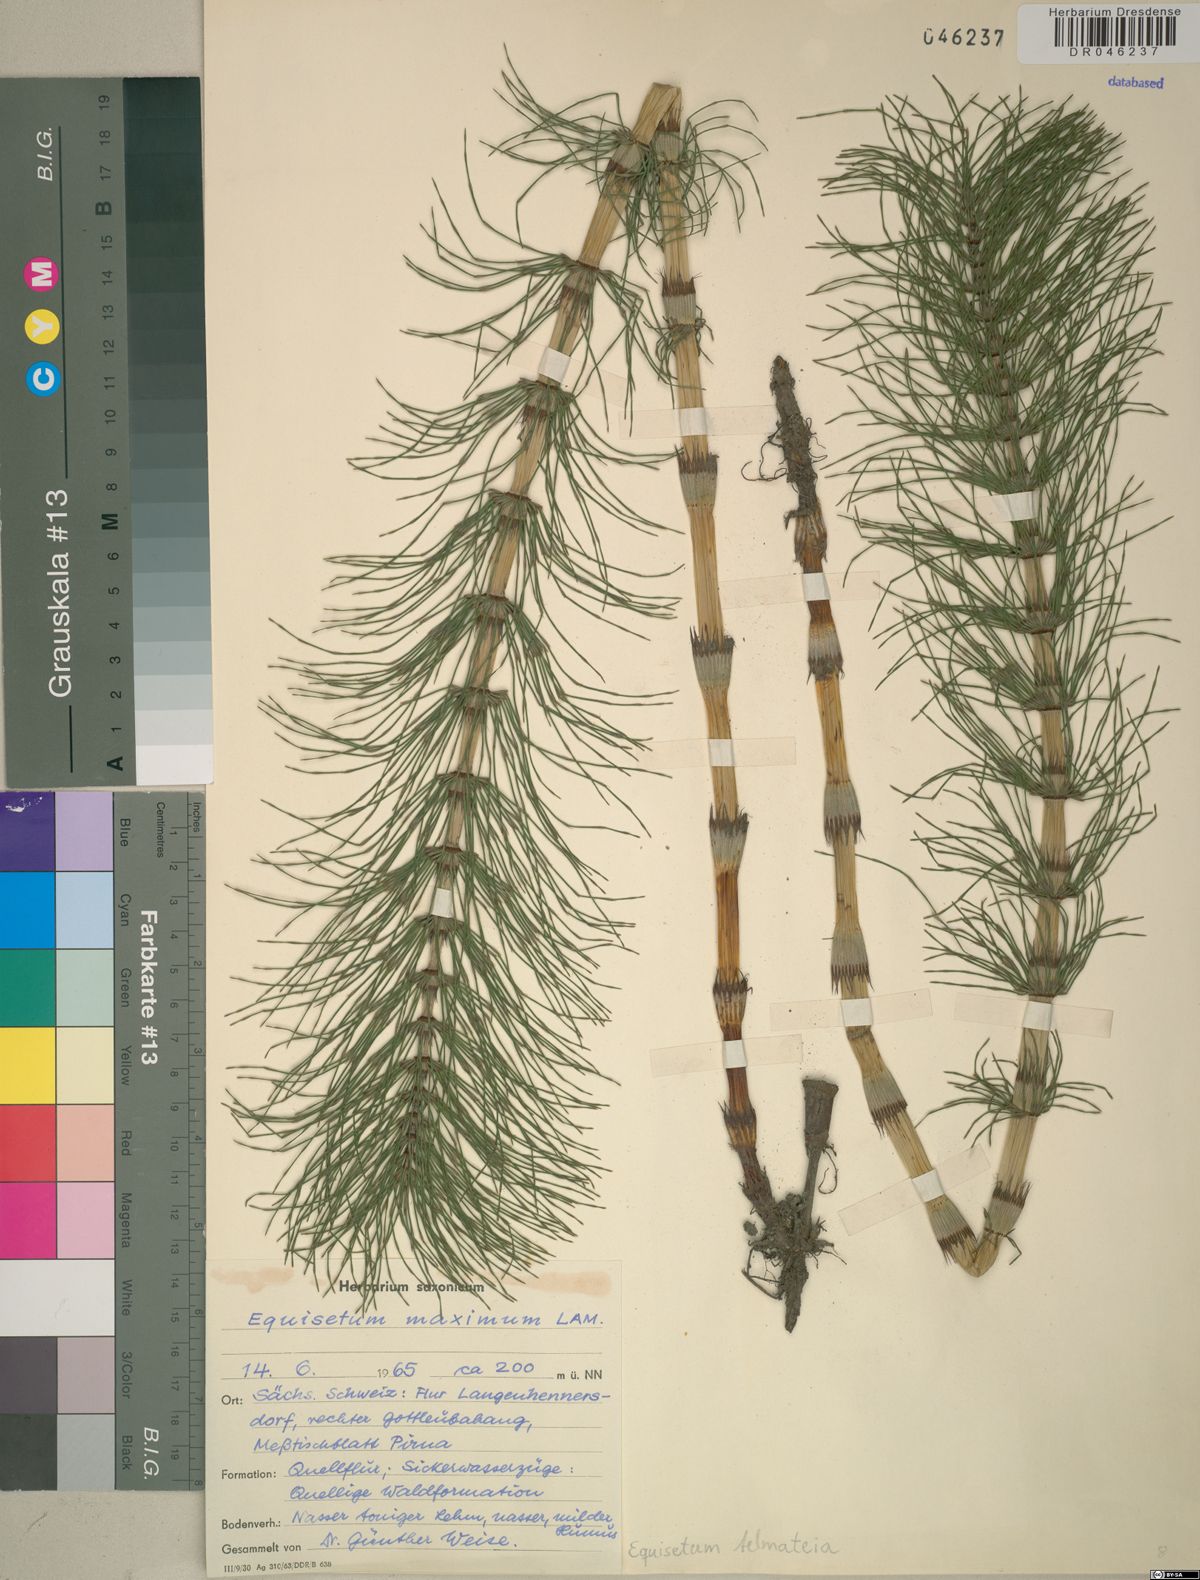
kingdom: Plantae
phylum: Tracheophyta
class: Polypodiopsida
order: Equisetales
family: Equisetaceae
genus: Equisetum
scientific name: Equisetum telmateia
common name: Great horsetail
